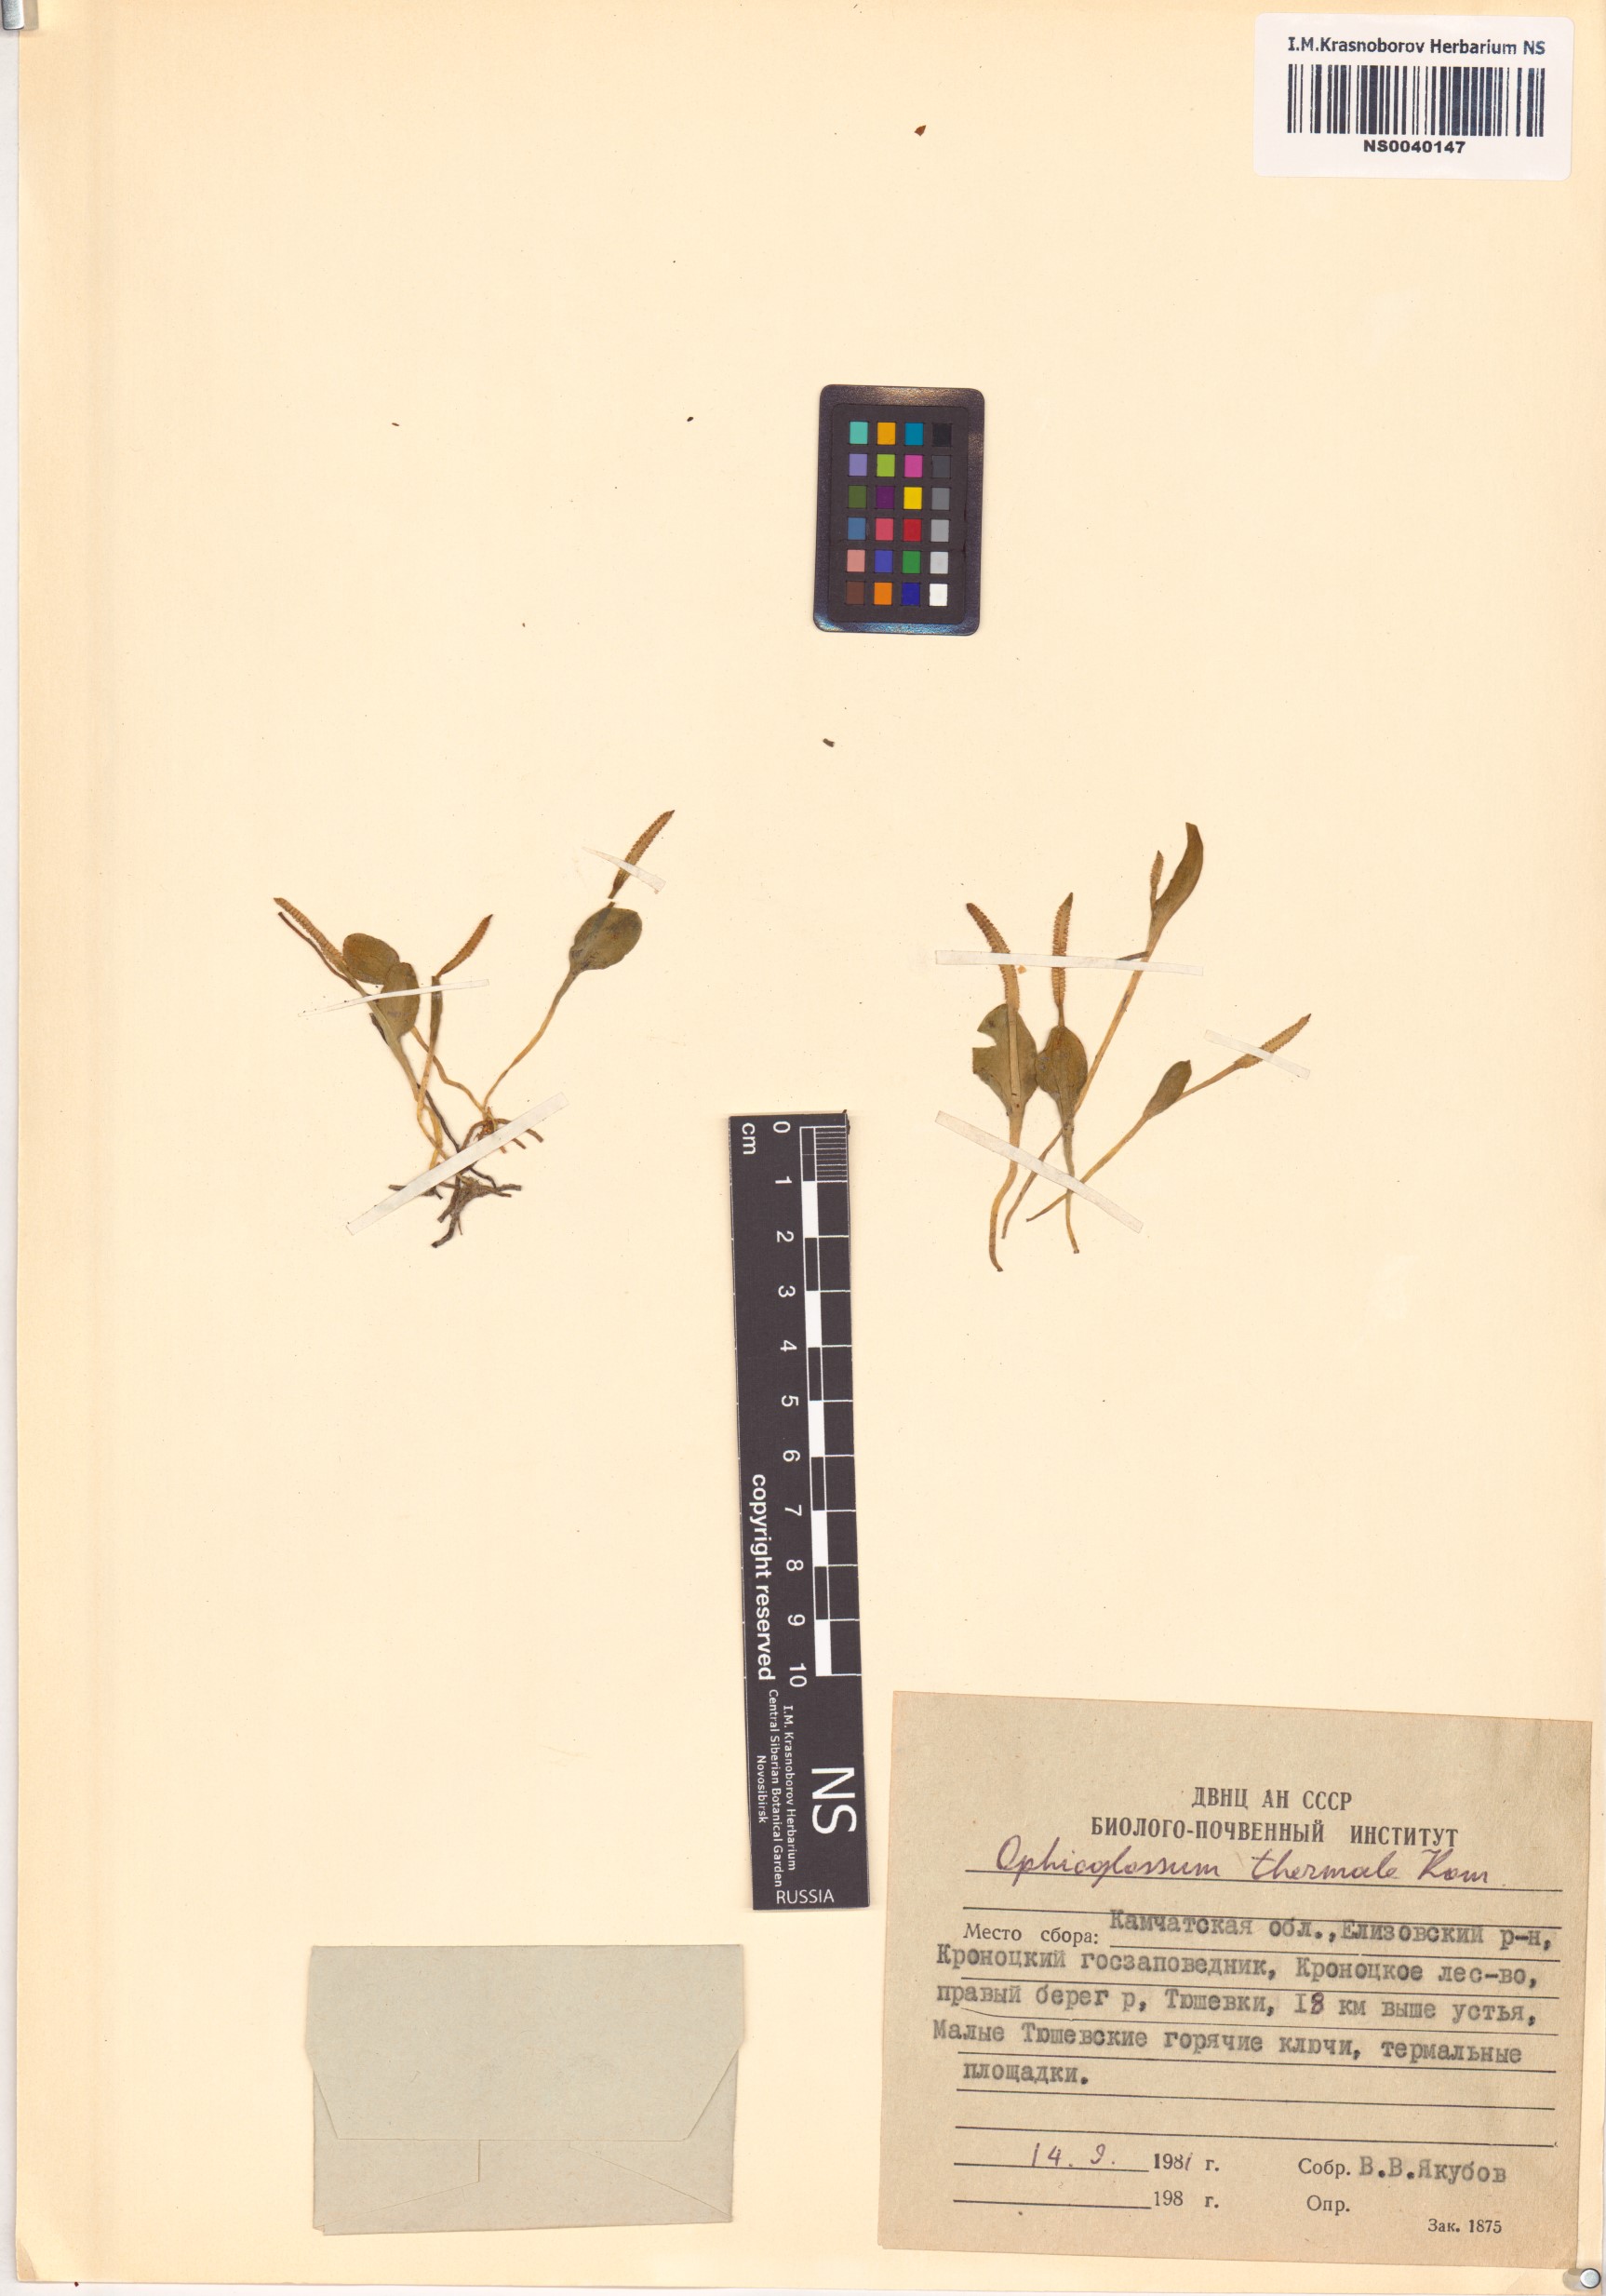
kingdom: Plantae
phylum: Tracheophyta
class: Polypodiopsida
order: Ophioglossales
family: Ophioglossaceae
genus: Ophioglossum
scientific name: Ophioglossum thermale
